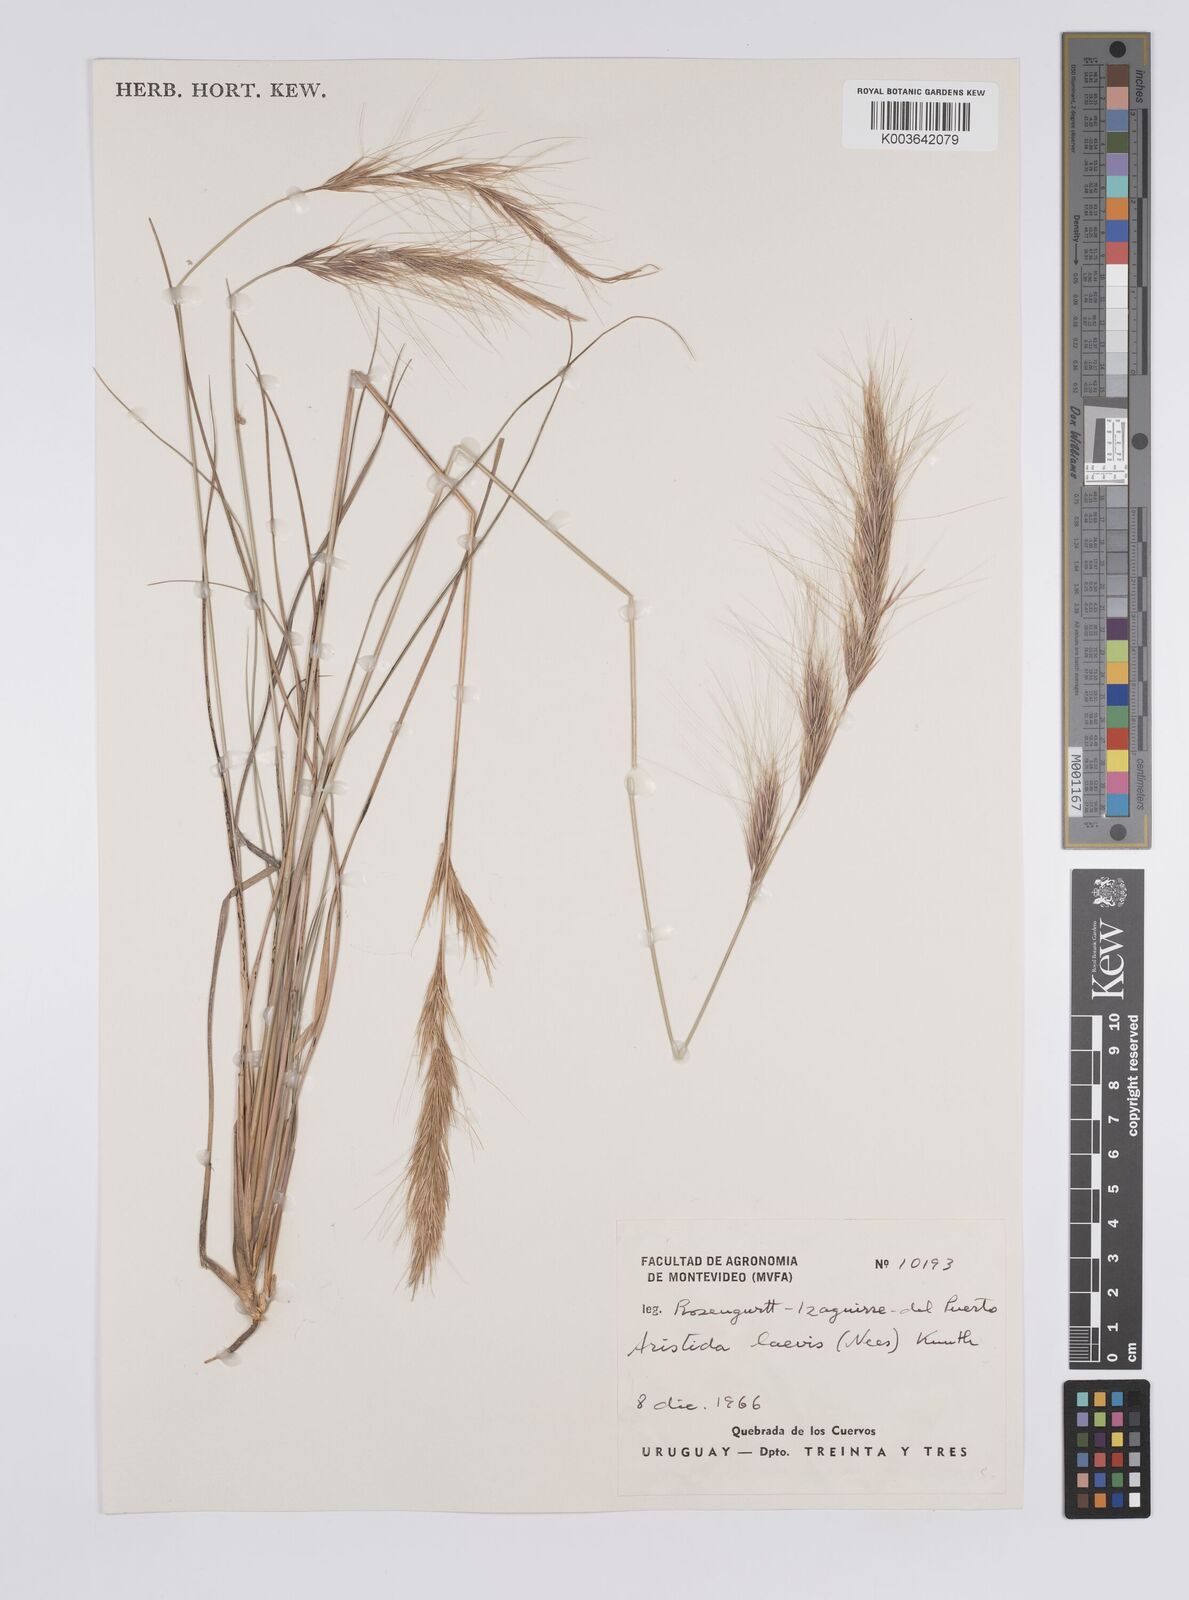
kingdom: Plantae
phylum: Tracheophyta
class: Liliopsida
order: Poales
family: Poaceae
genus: Aristida
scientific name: Aristida laevis
